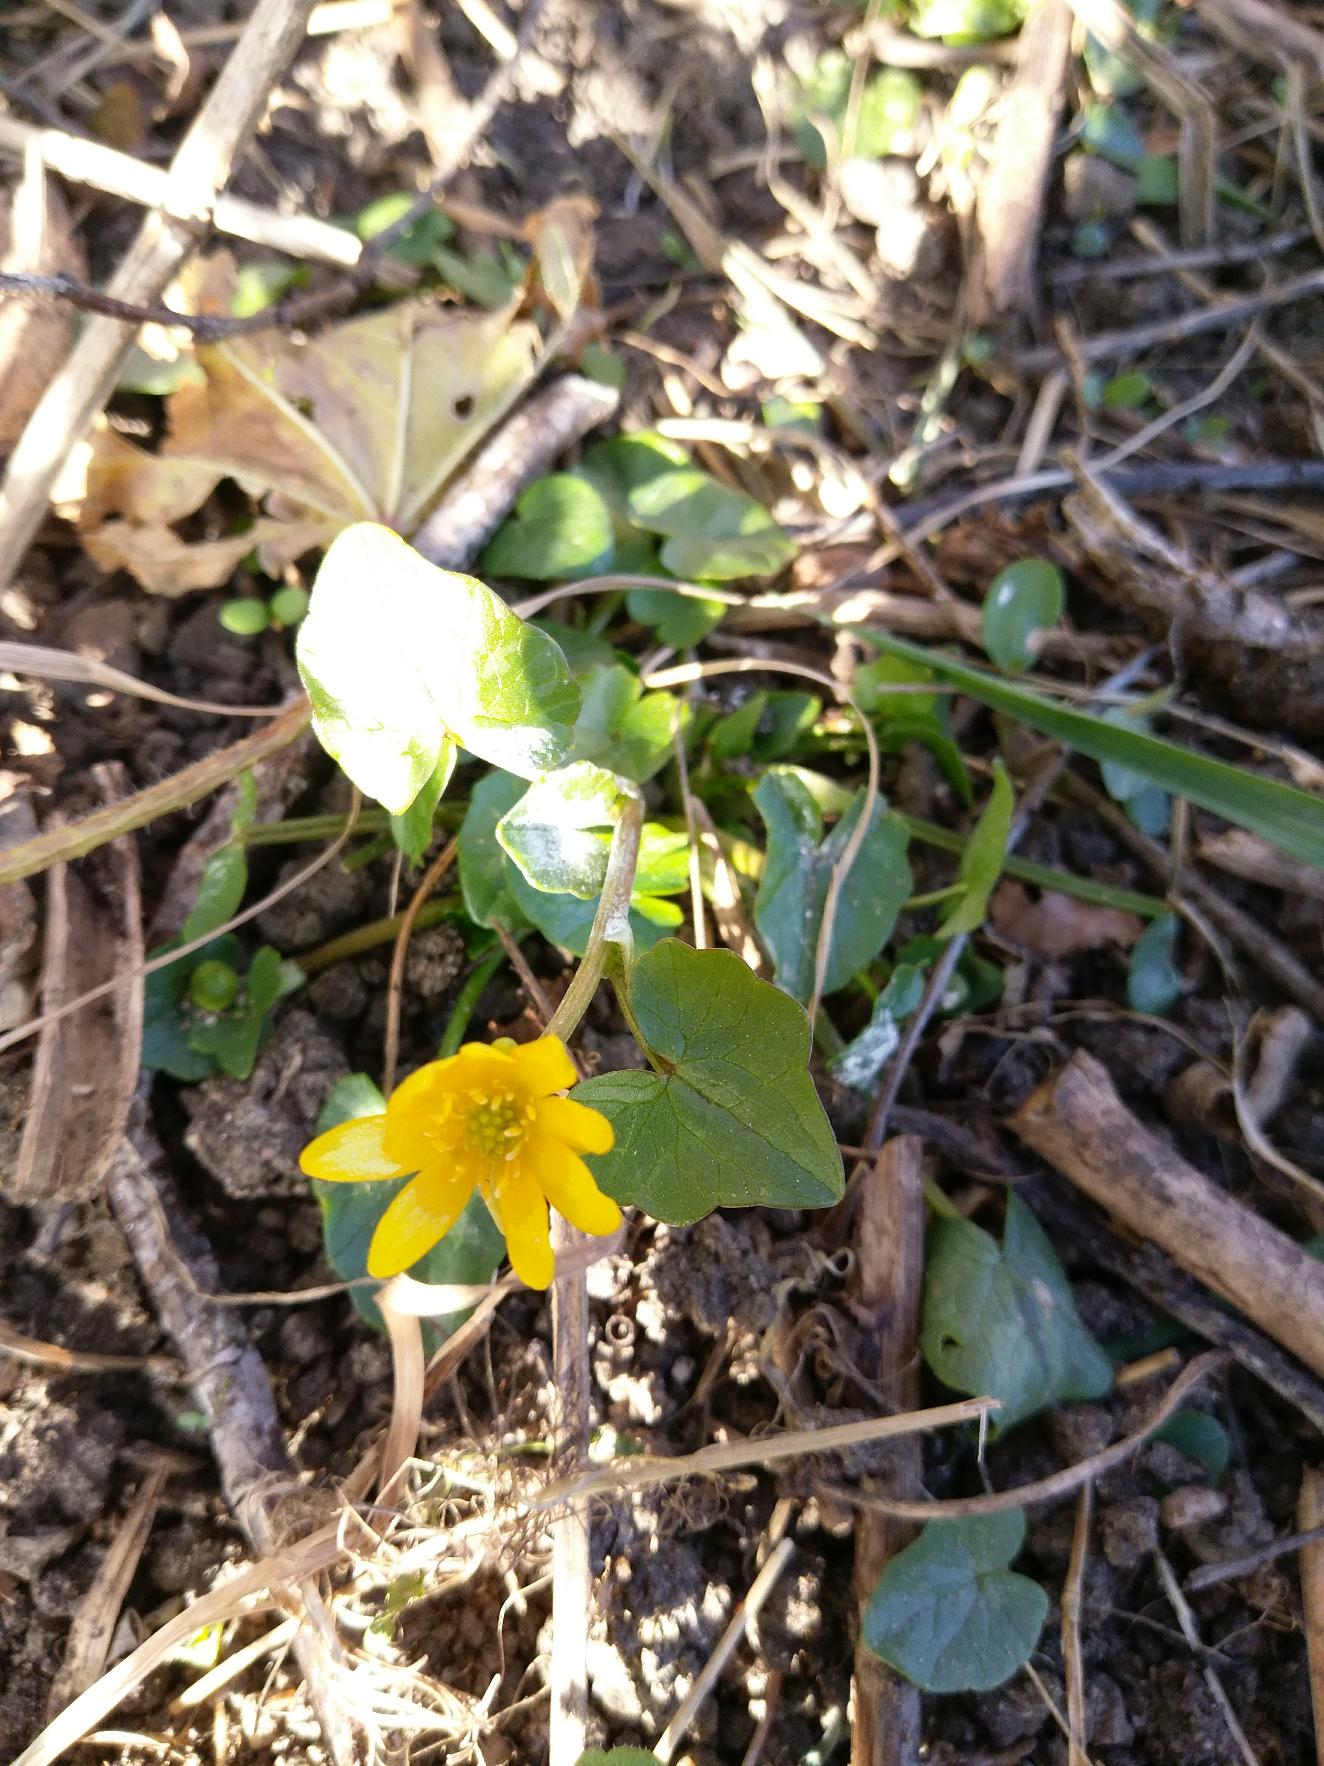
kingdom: Plantae
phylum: Tracheophyta
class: Magnoliopsida
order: Ranunculales
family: Ranunculaceae
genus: Ficaria
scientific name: Ficaria verna
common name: Vorterod
